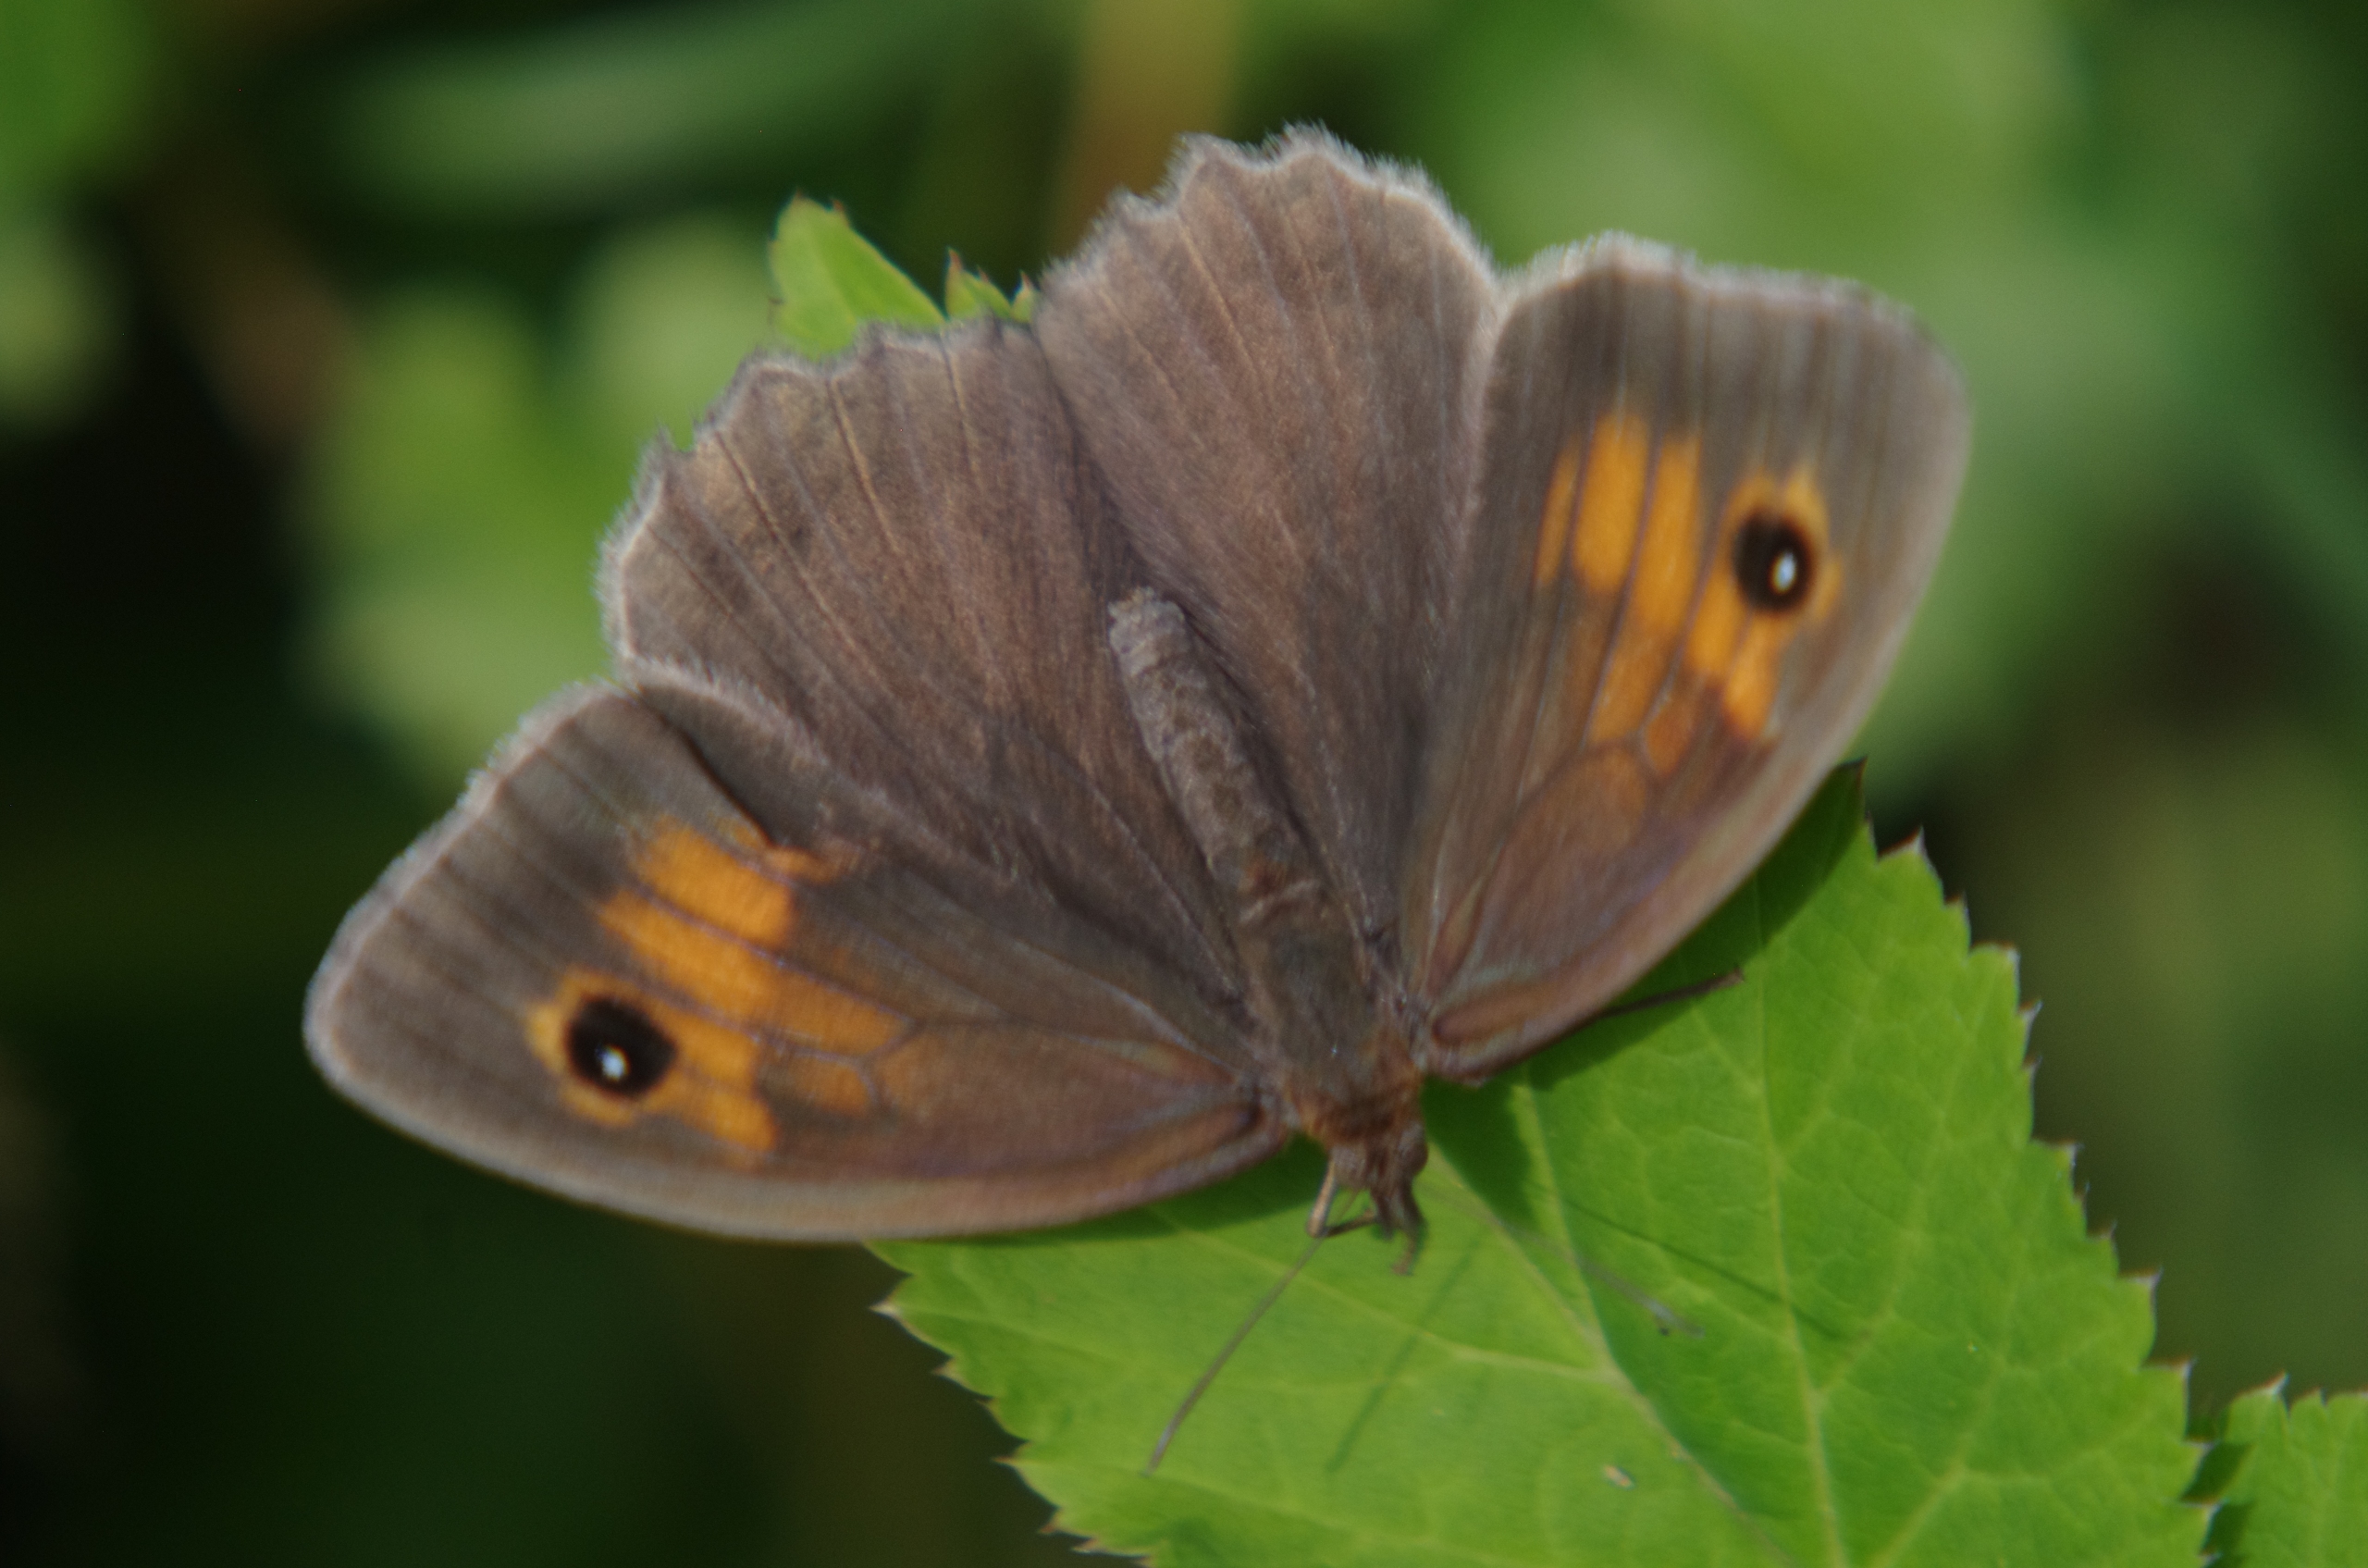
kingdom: Animalia
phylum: Arthropoda
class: Insecta
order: Lepidoptera
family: Nymphalidae
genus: Maniola
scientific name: Maniola jurtina
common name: Græsrandøje
